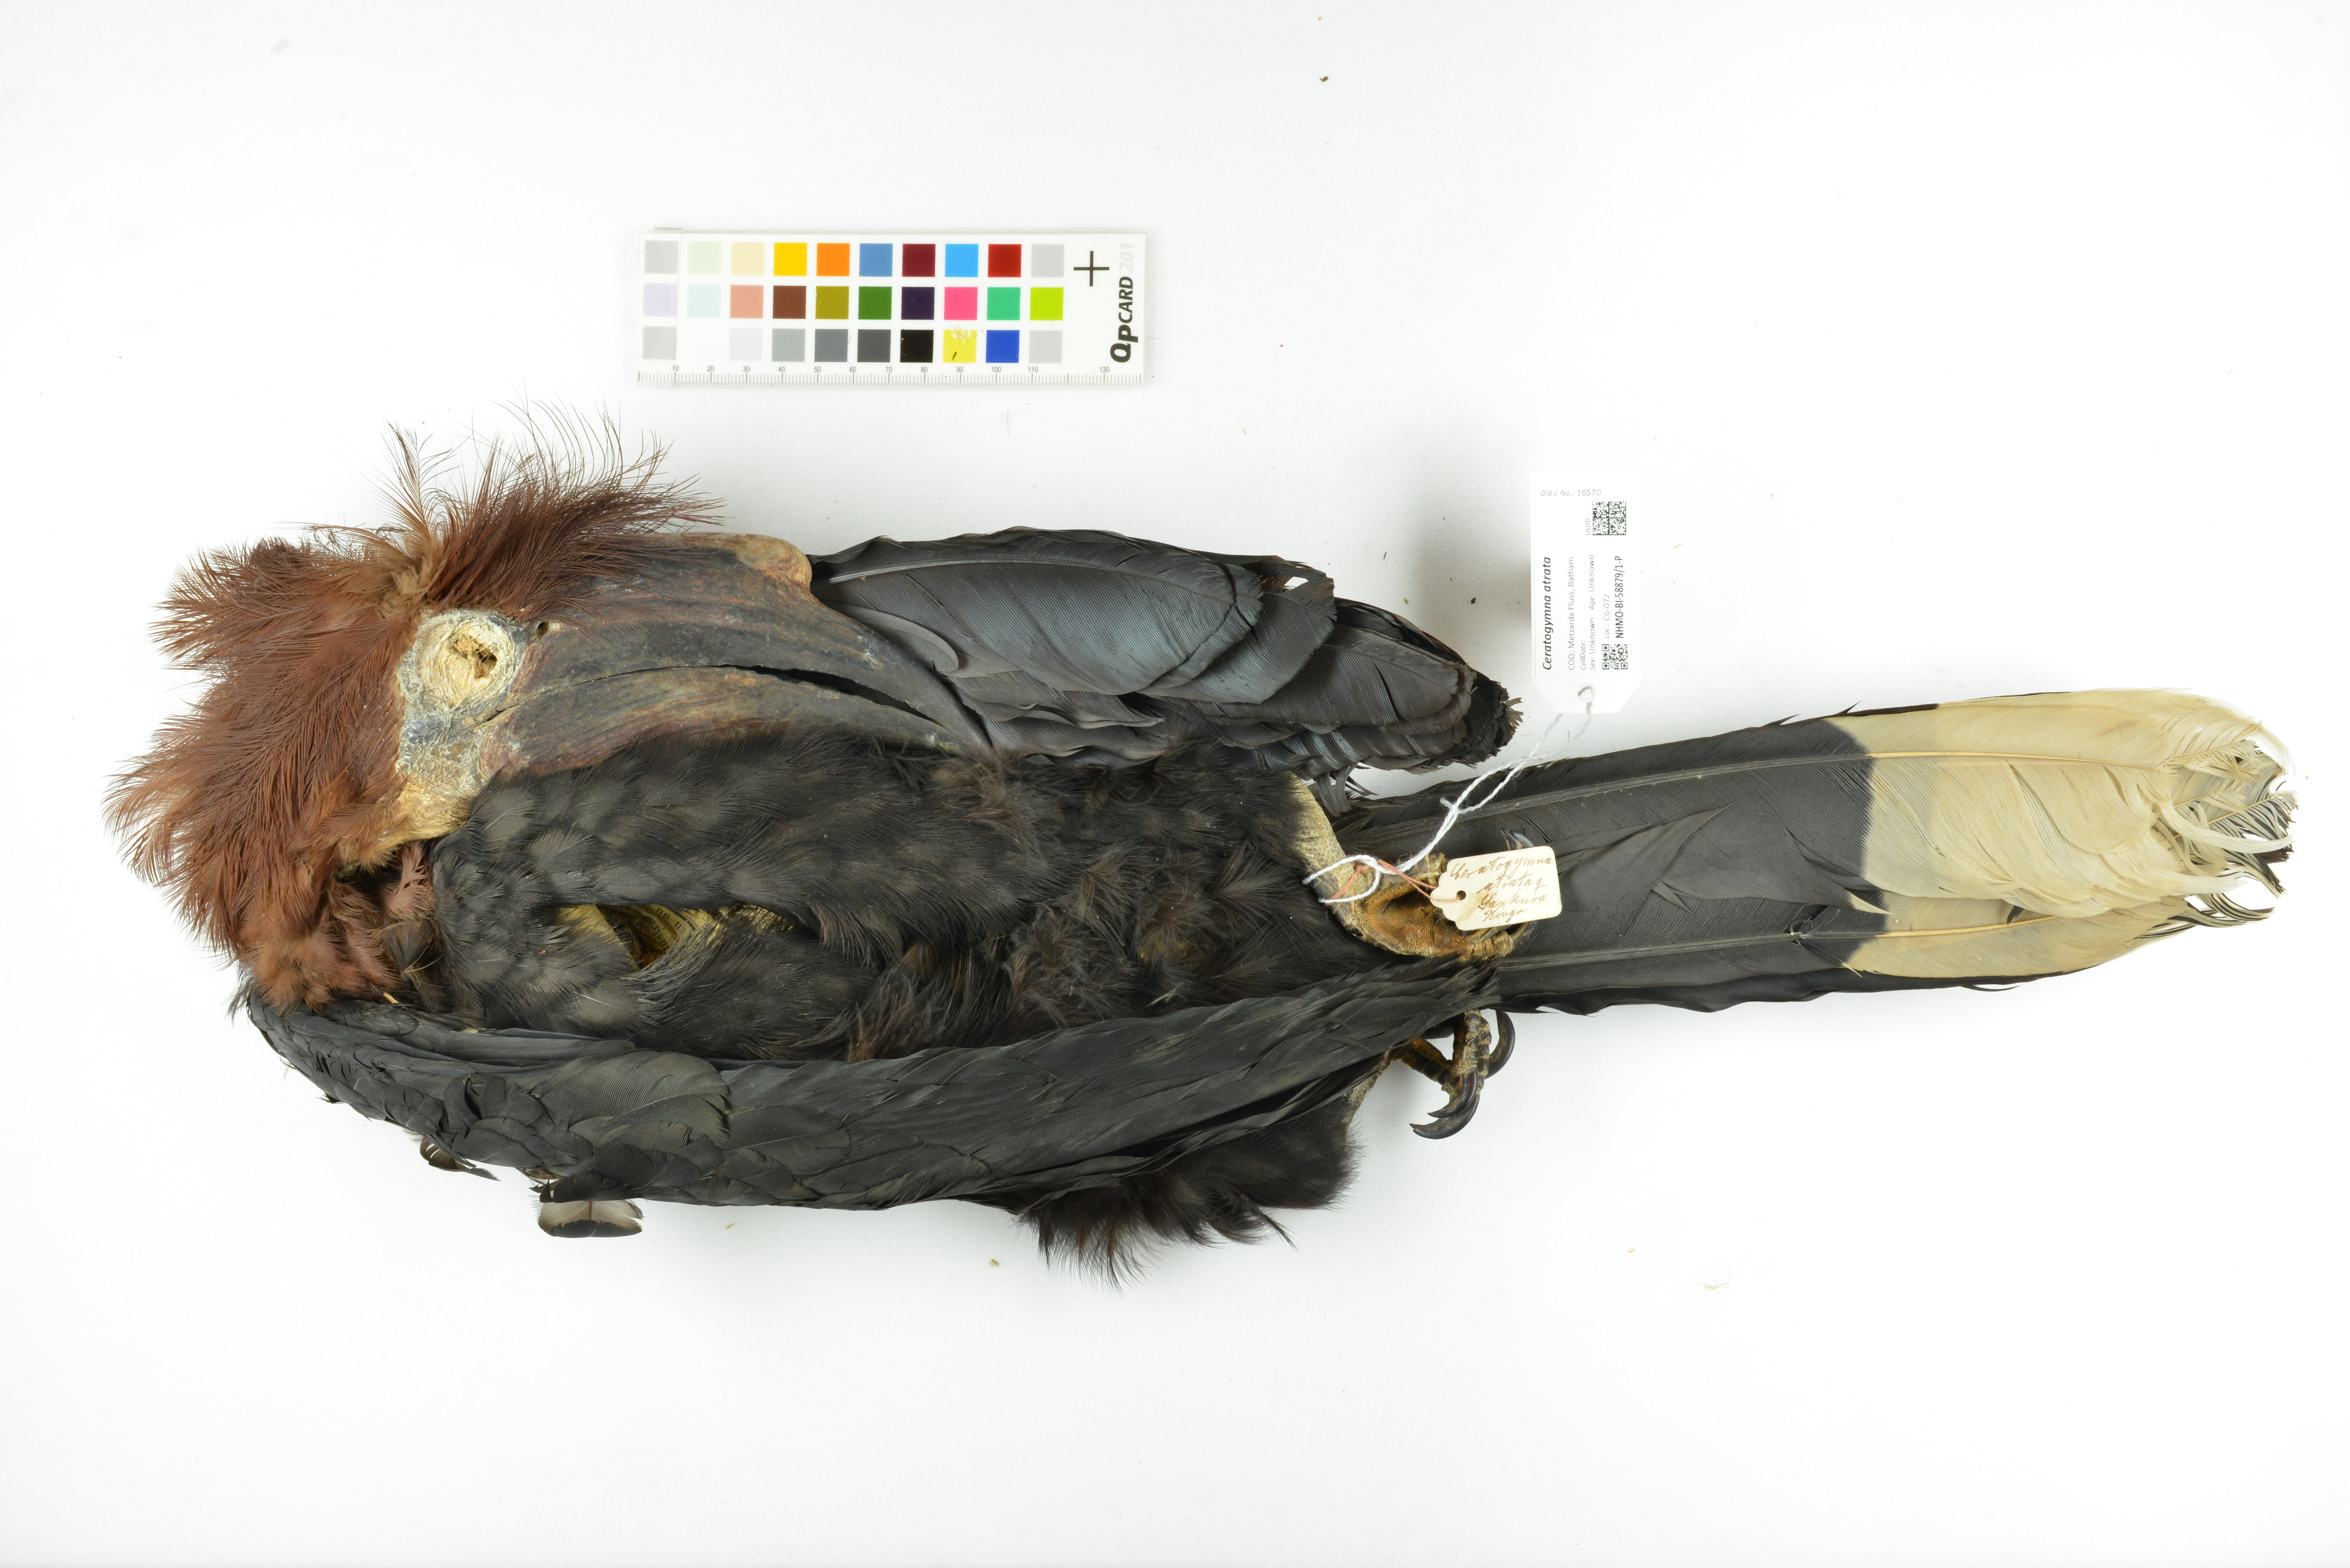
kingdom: Animalia
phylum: Chordata
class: Aves
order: Bucerotiformes
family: Bucerotidae
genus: Ceratogymna
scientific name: Ceratogymna atrata
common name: Black-casqued hornbill
